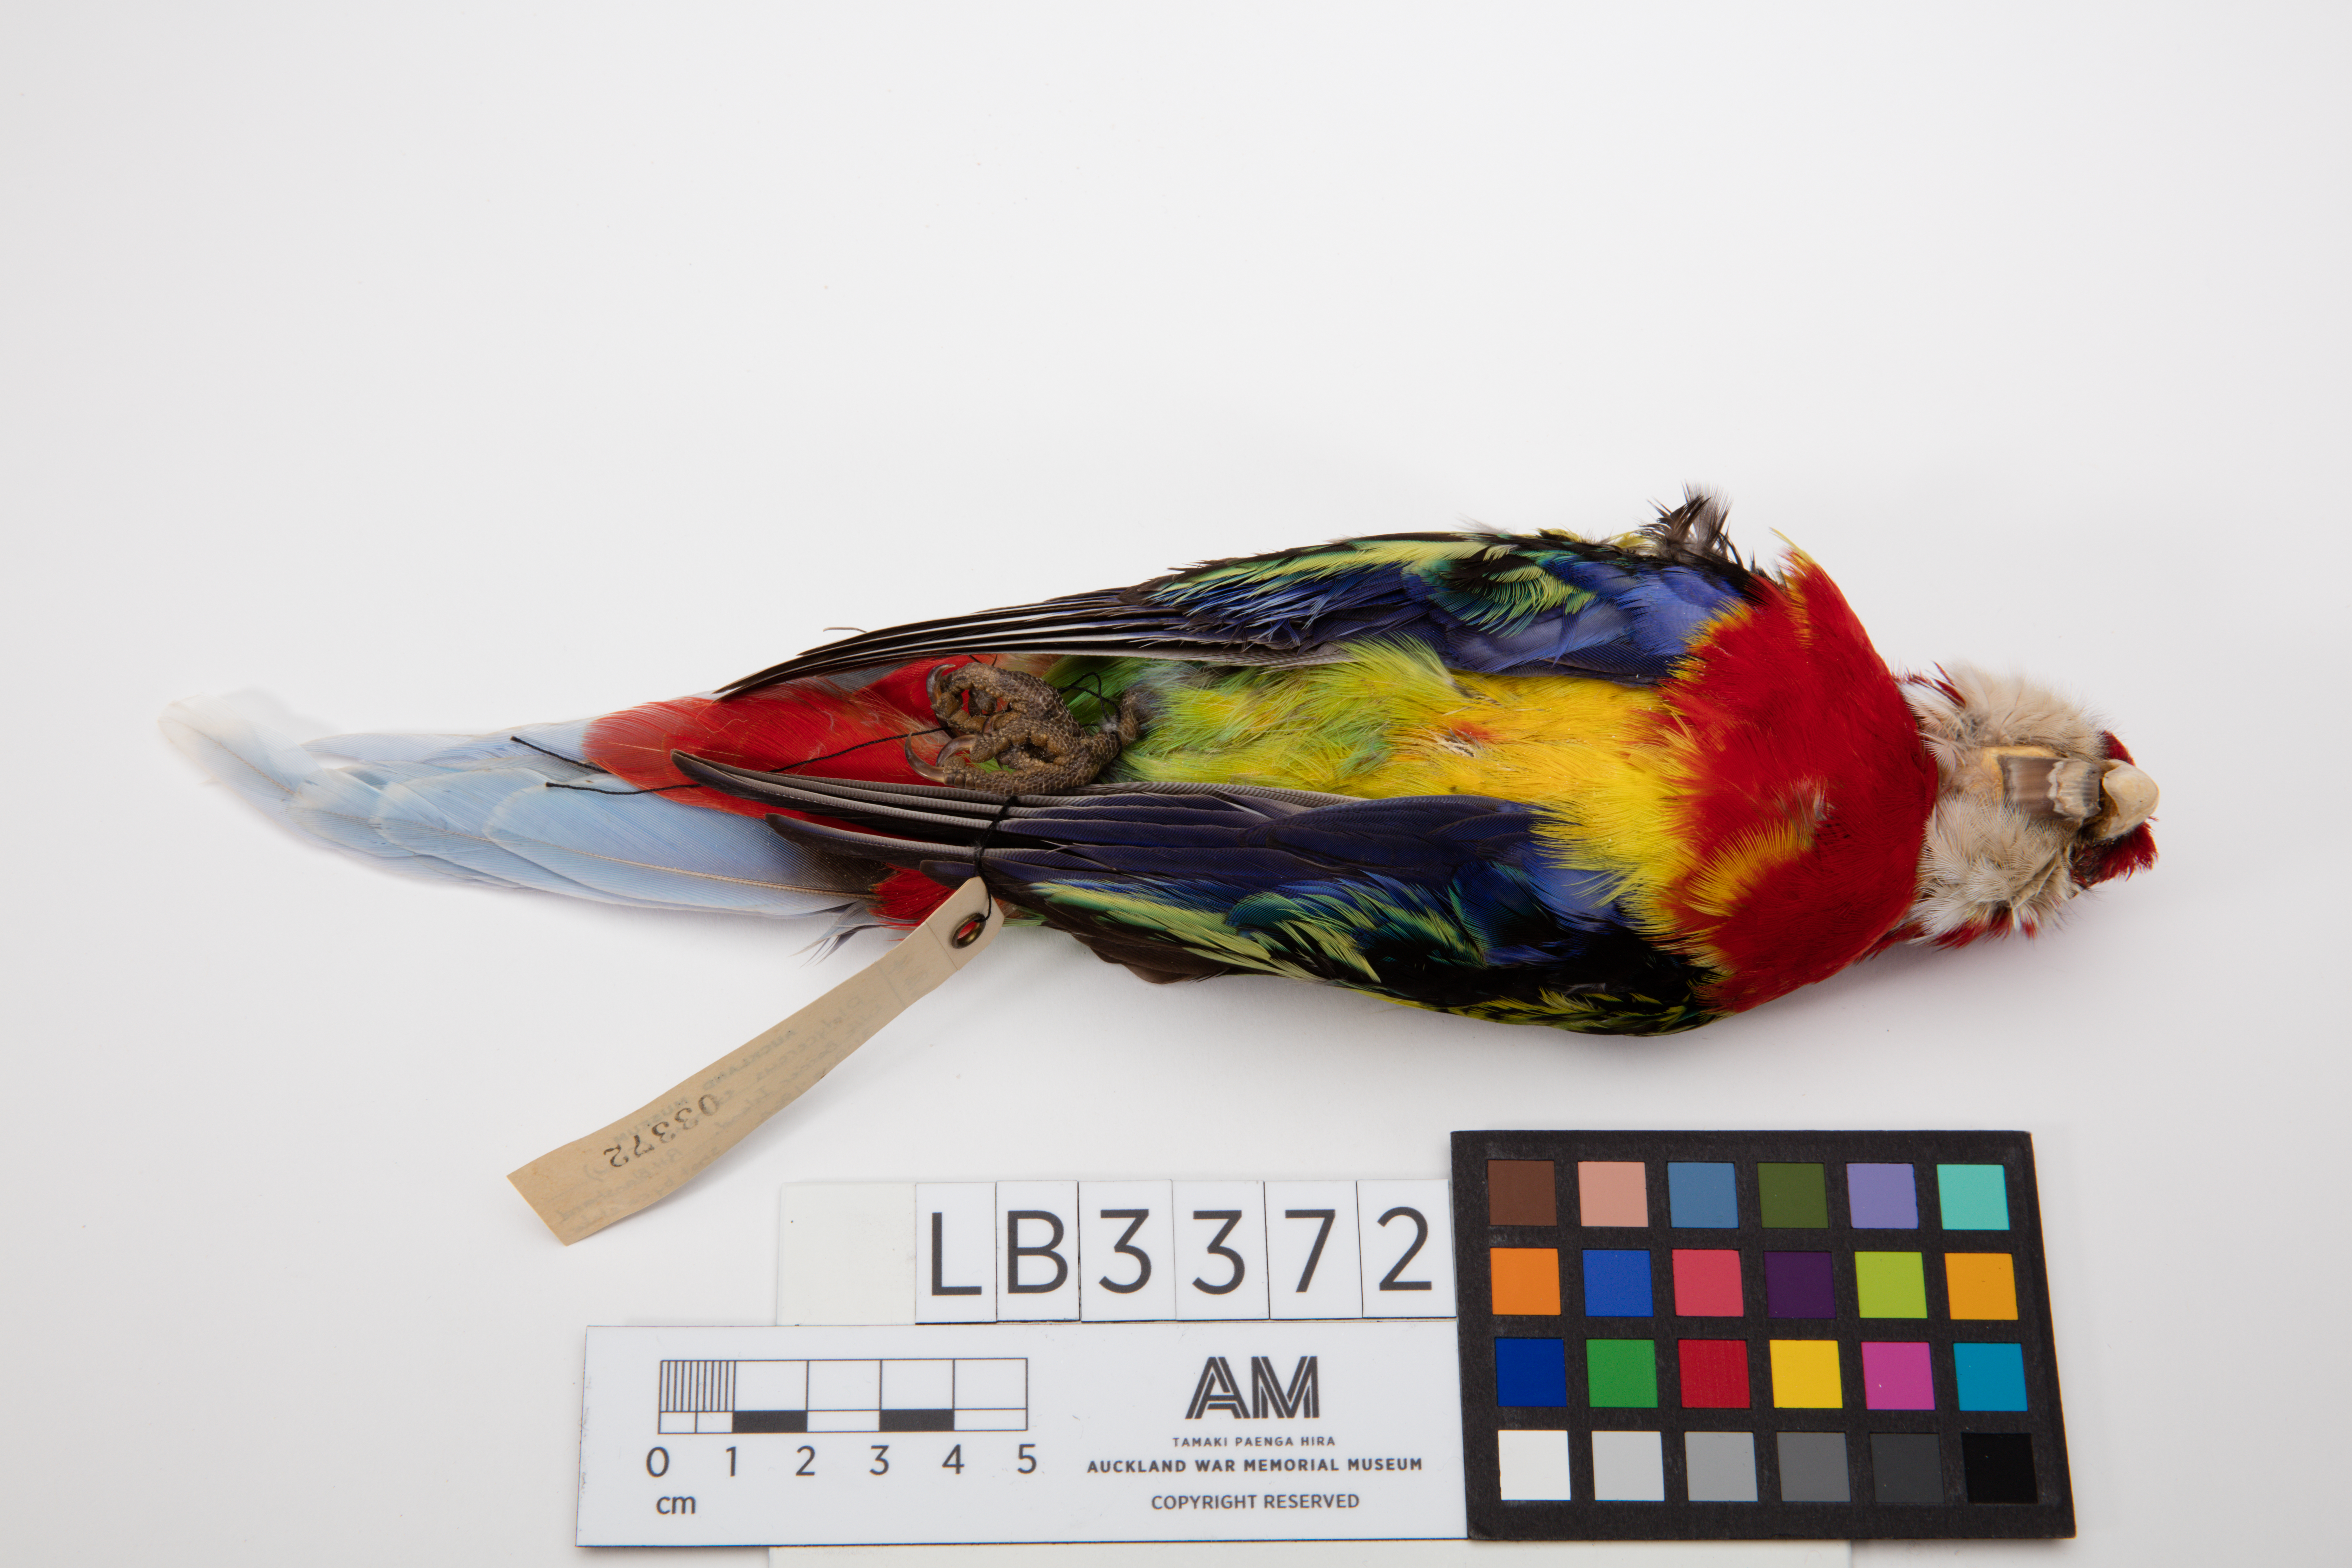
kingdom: Animalia
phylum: Chordata
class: Aves
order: Psittaciformes
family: Psittacidae
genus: Platycercus
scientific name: Platycercus eximius
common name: Eastern rosella
